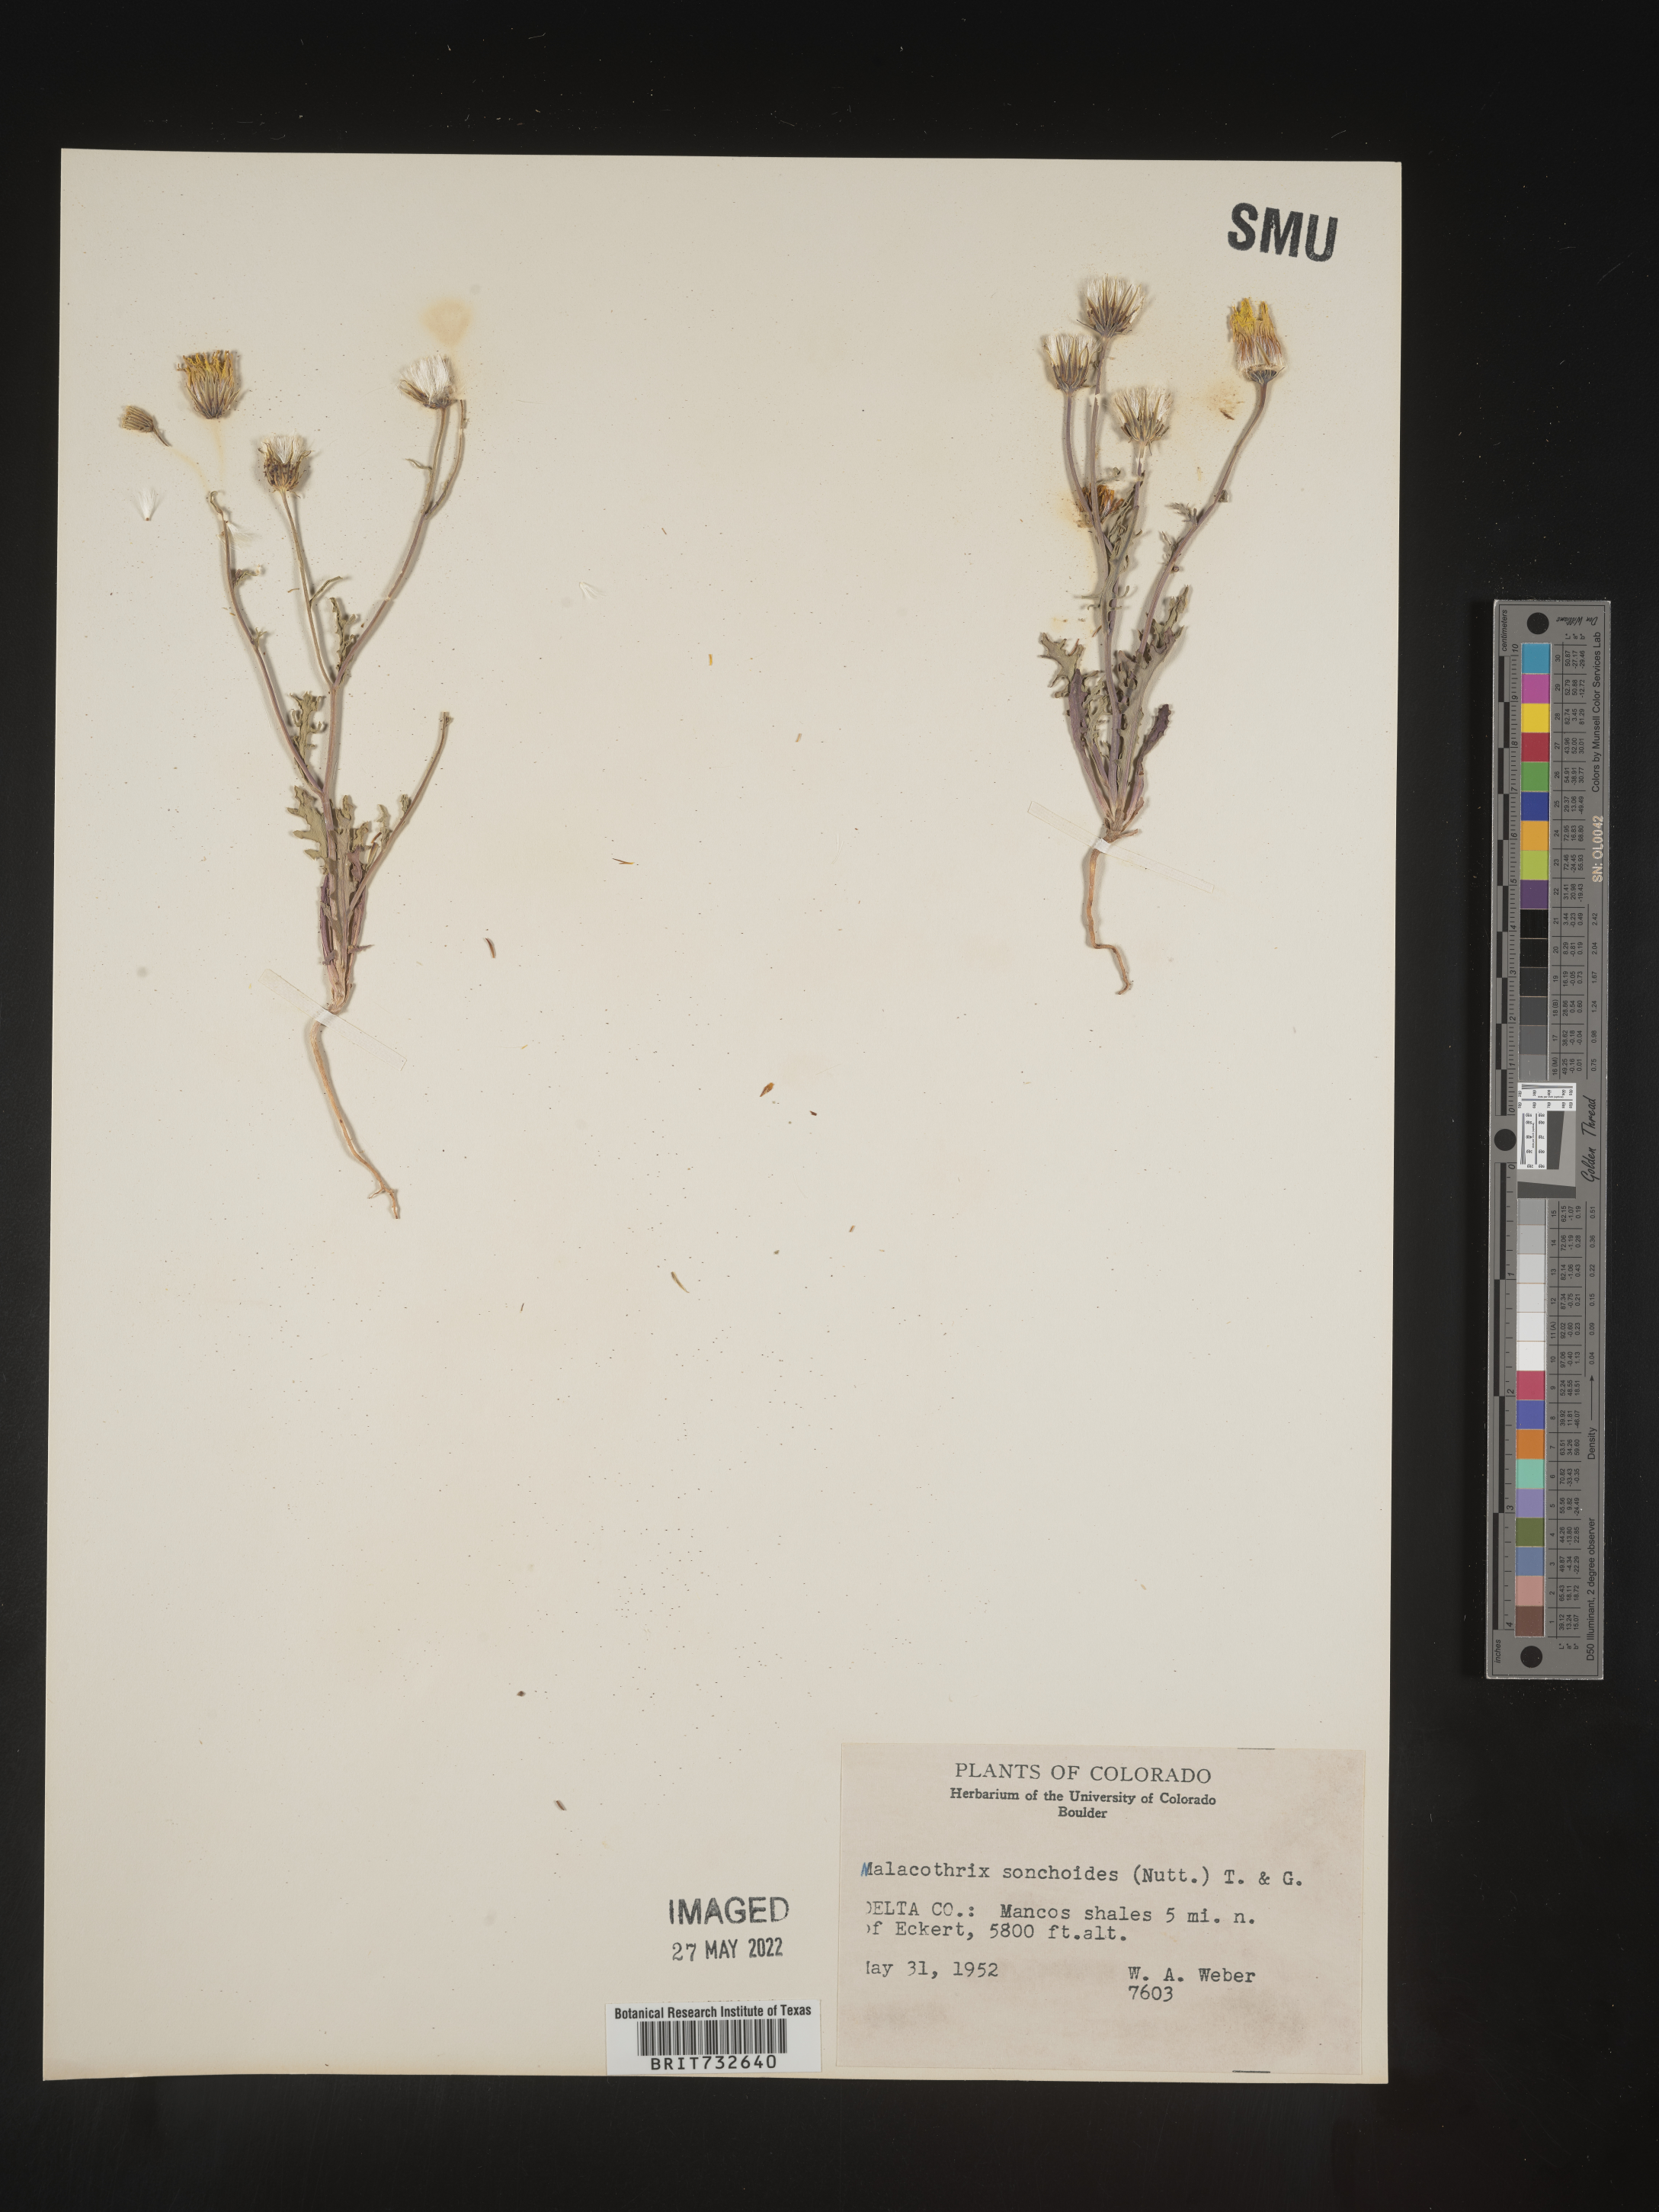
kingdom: Plantae
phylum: Tracheophyta
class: Magnoliopsida
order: Asterales
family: Asteraceae
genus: Malacothrix
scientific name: Malacothrix sonchoides
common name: Sow-thistle desert-dandelion
